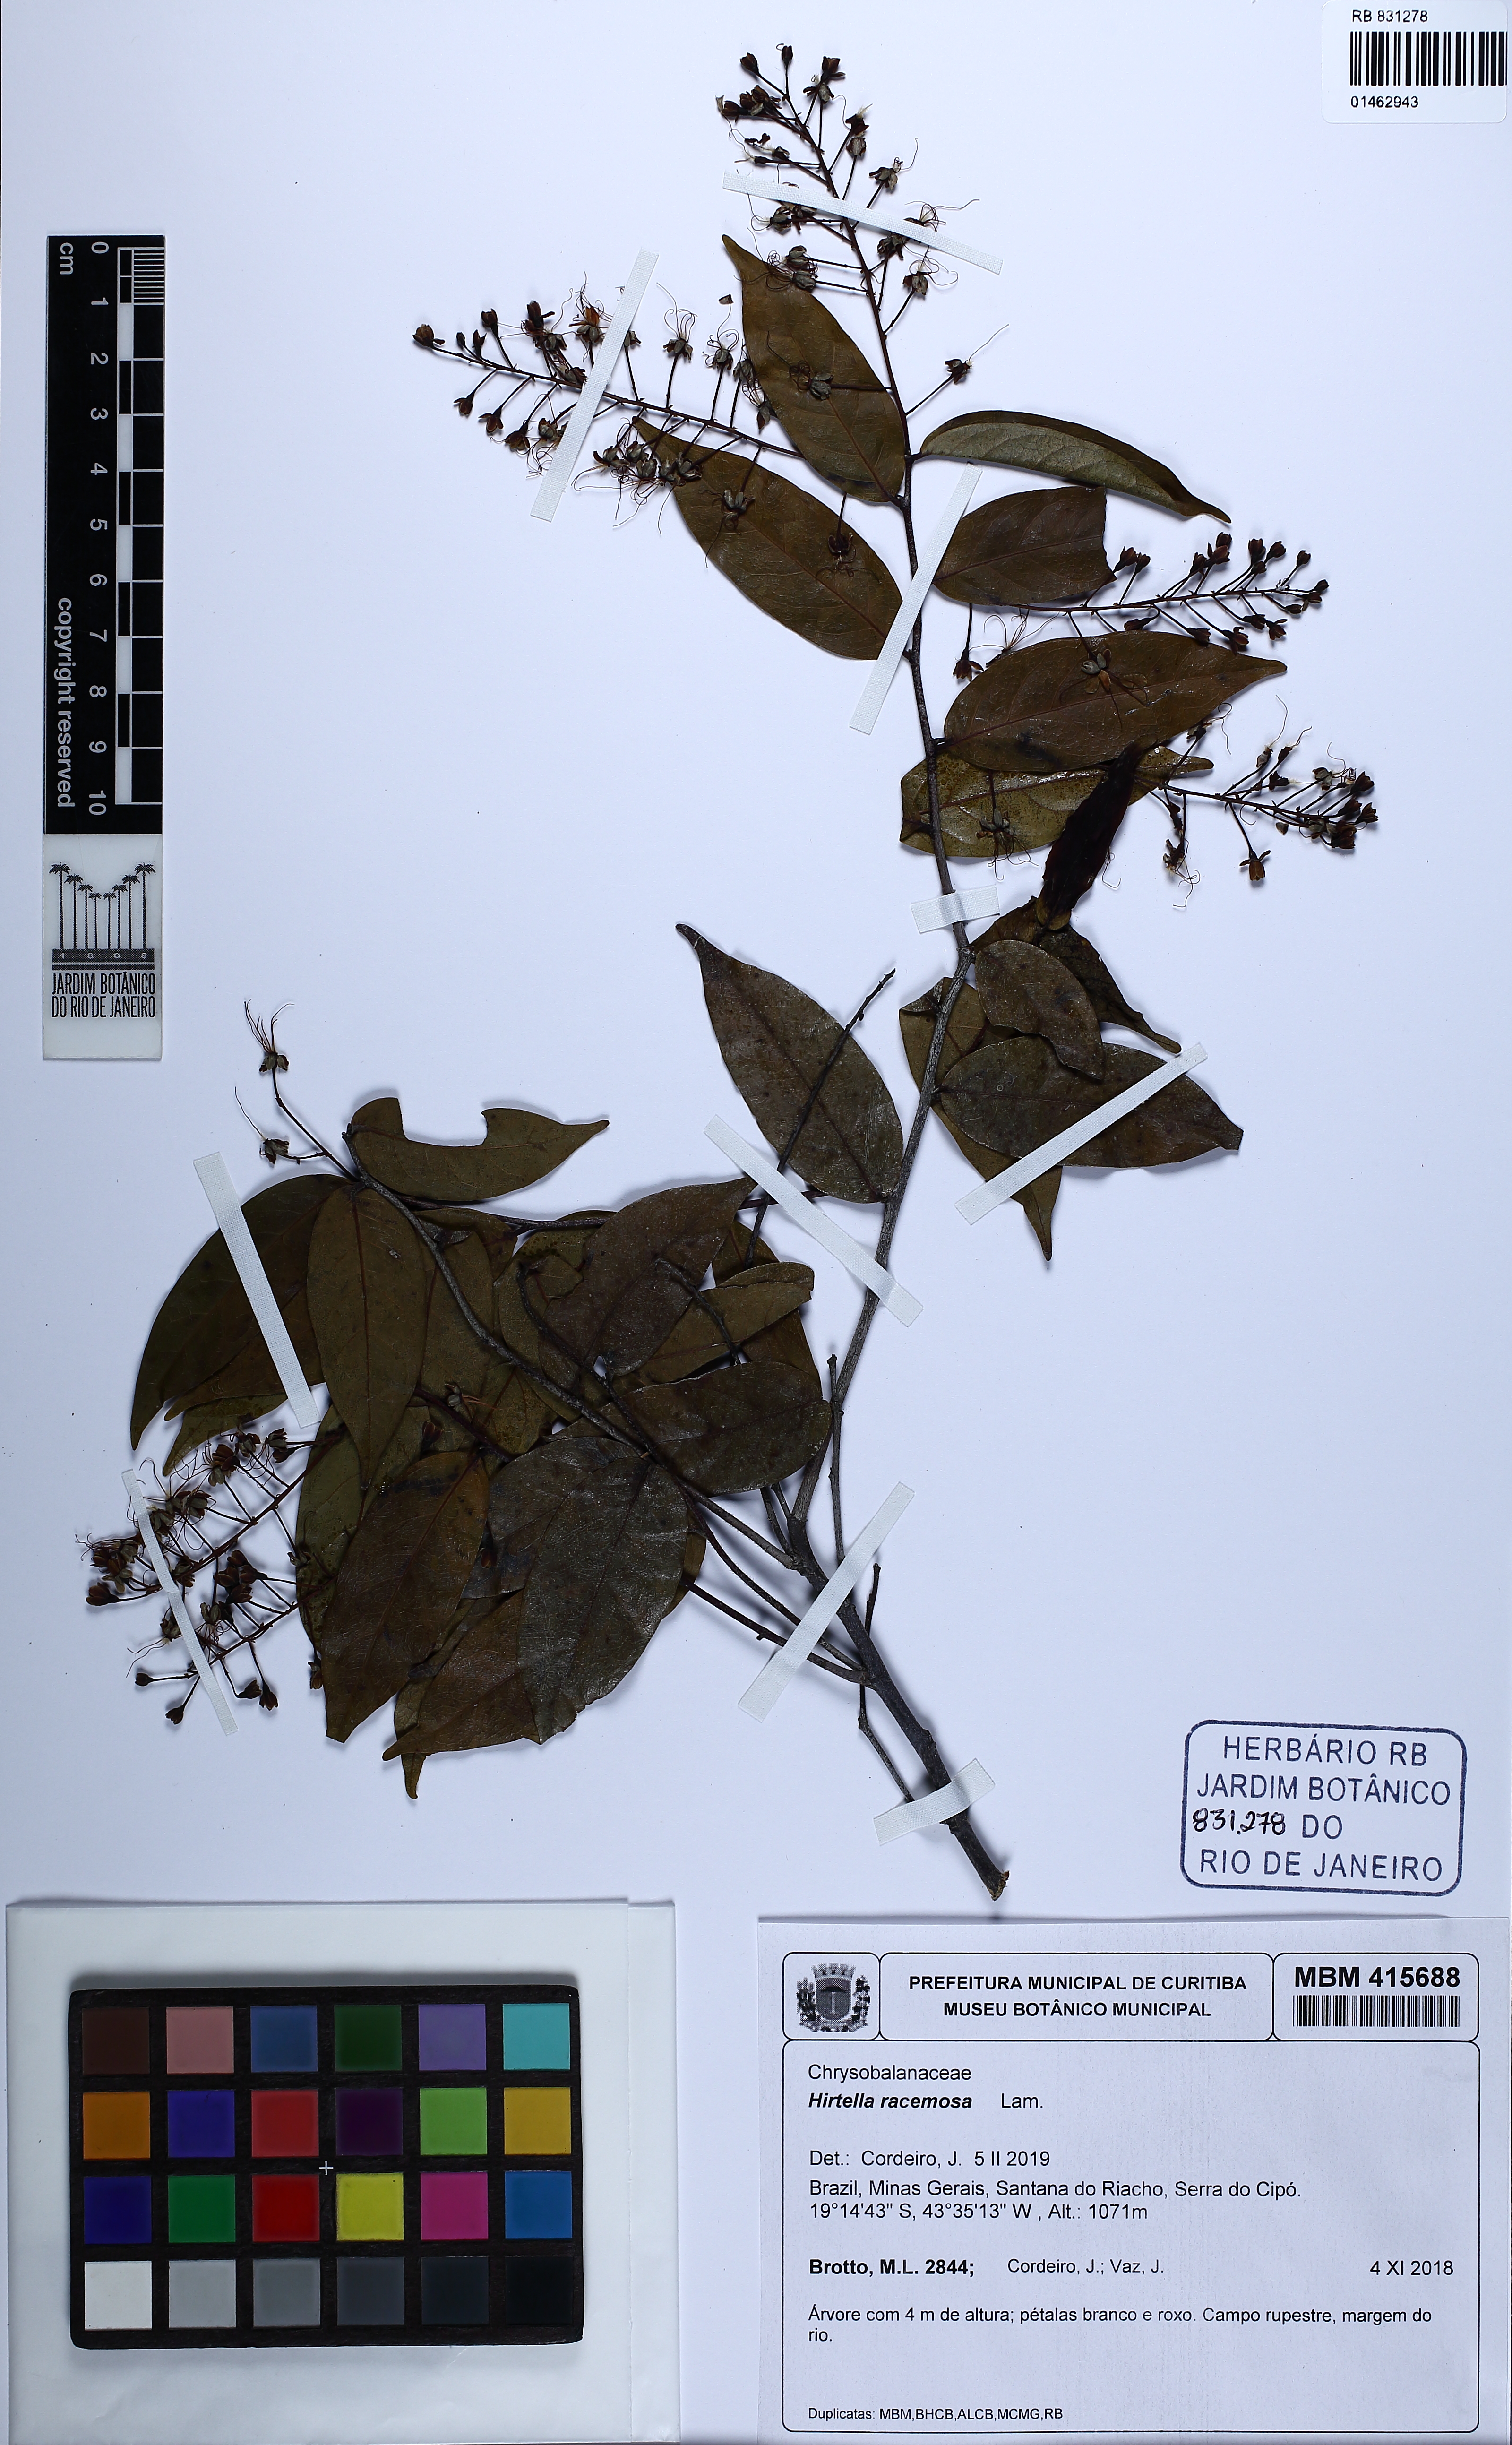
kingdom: Plantae
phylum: Tracheophyta
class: Magnoliopsida
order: Malpighiales
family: Chrysobalanaceae
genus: Hirtella
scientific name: Hirtella racemosa
